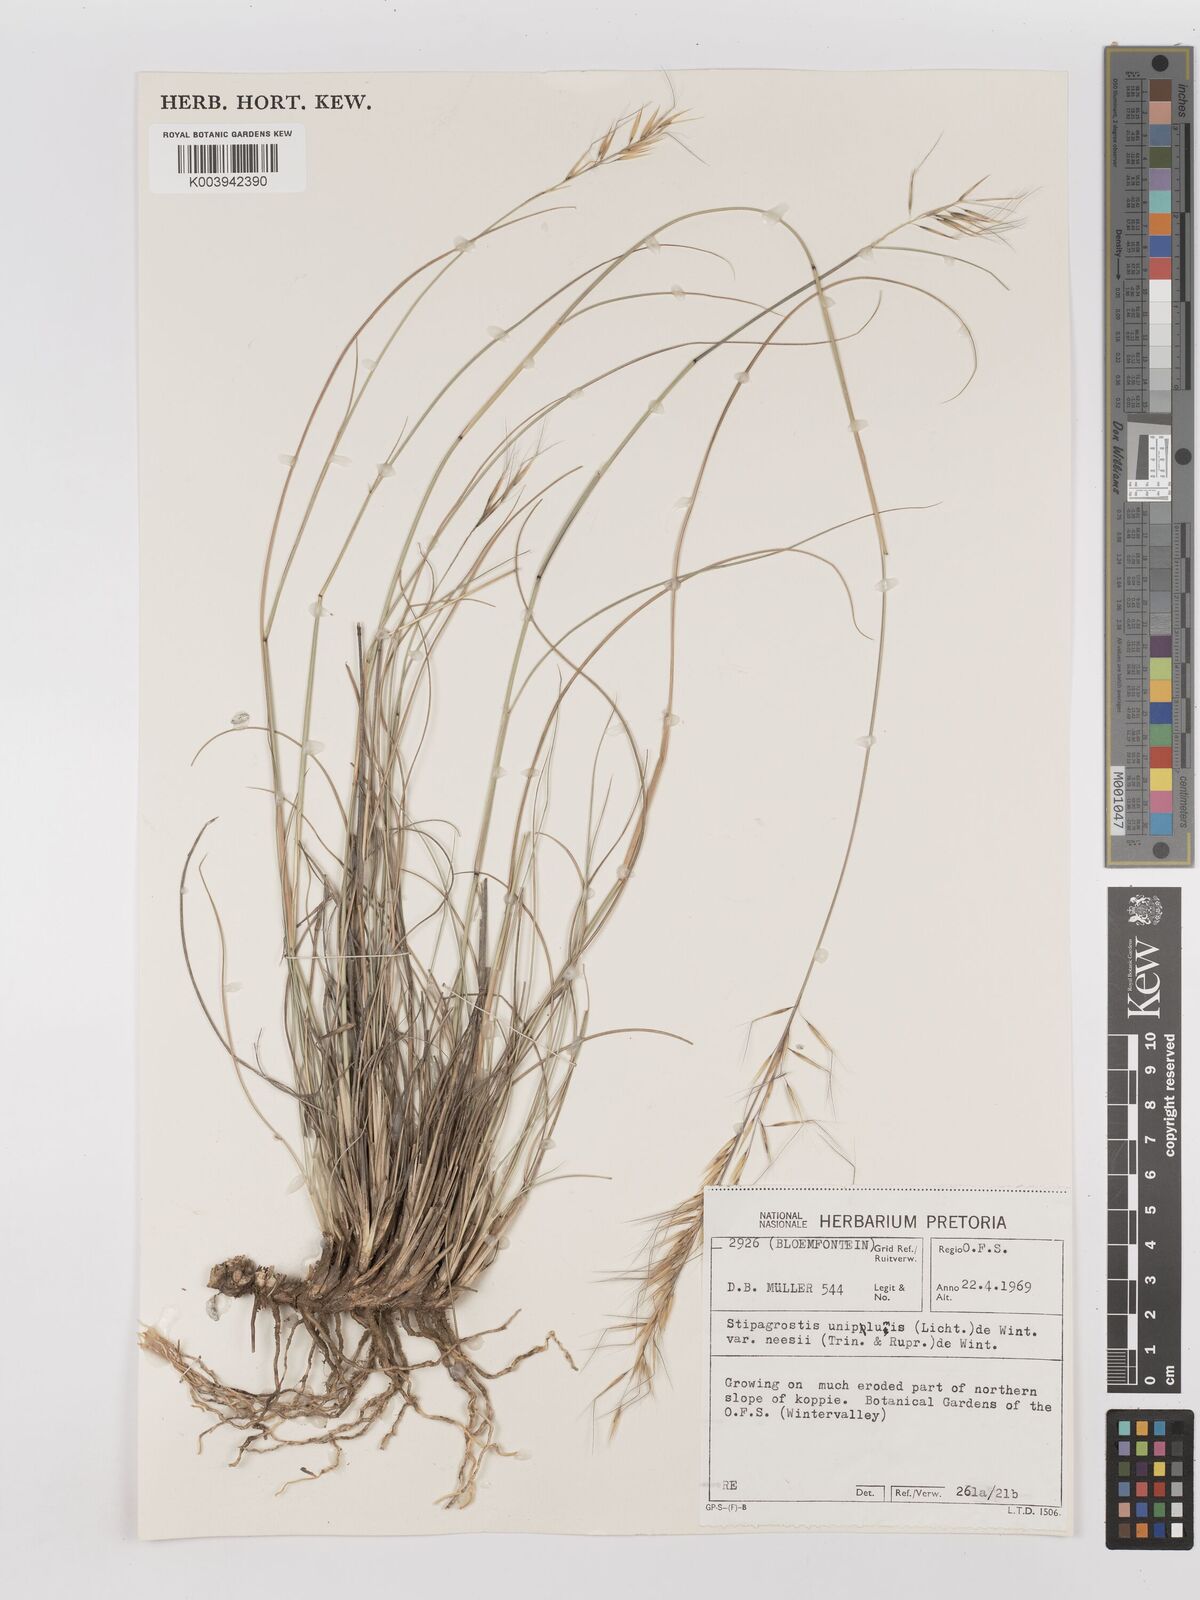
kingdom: Plantae
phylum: Tracheophyta
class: Liliopsida
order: Poales
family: Poaceae
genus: Stipagrostis
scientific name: Stipagrostis uniplumis
